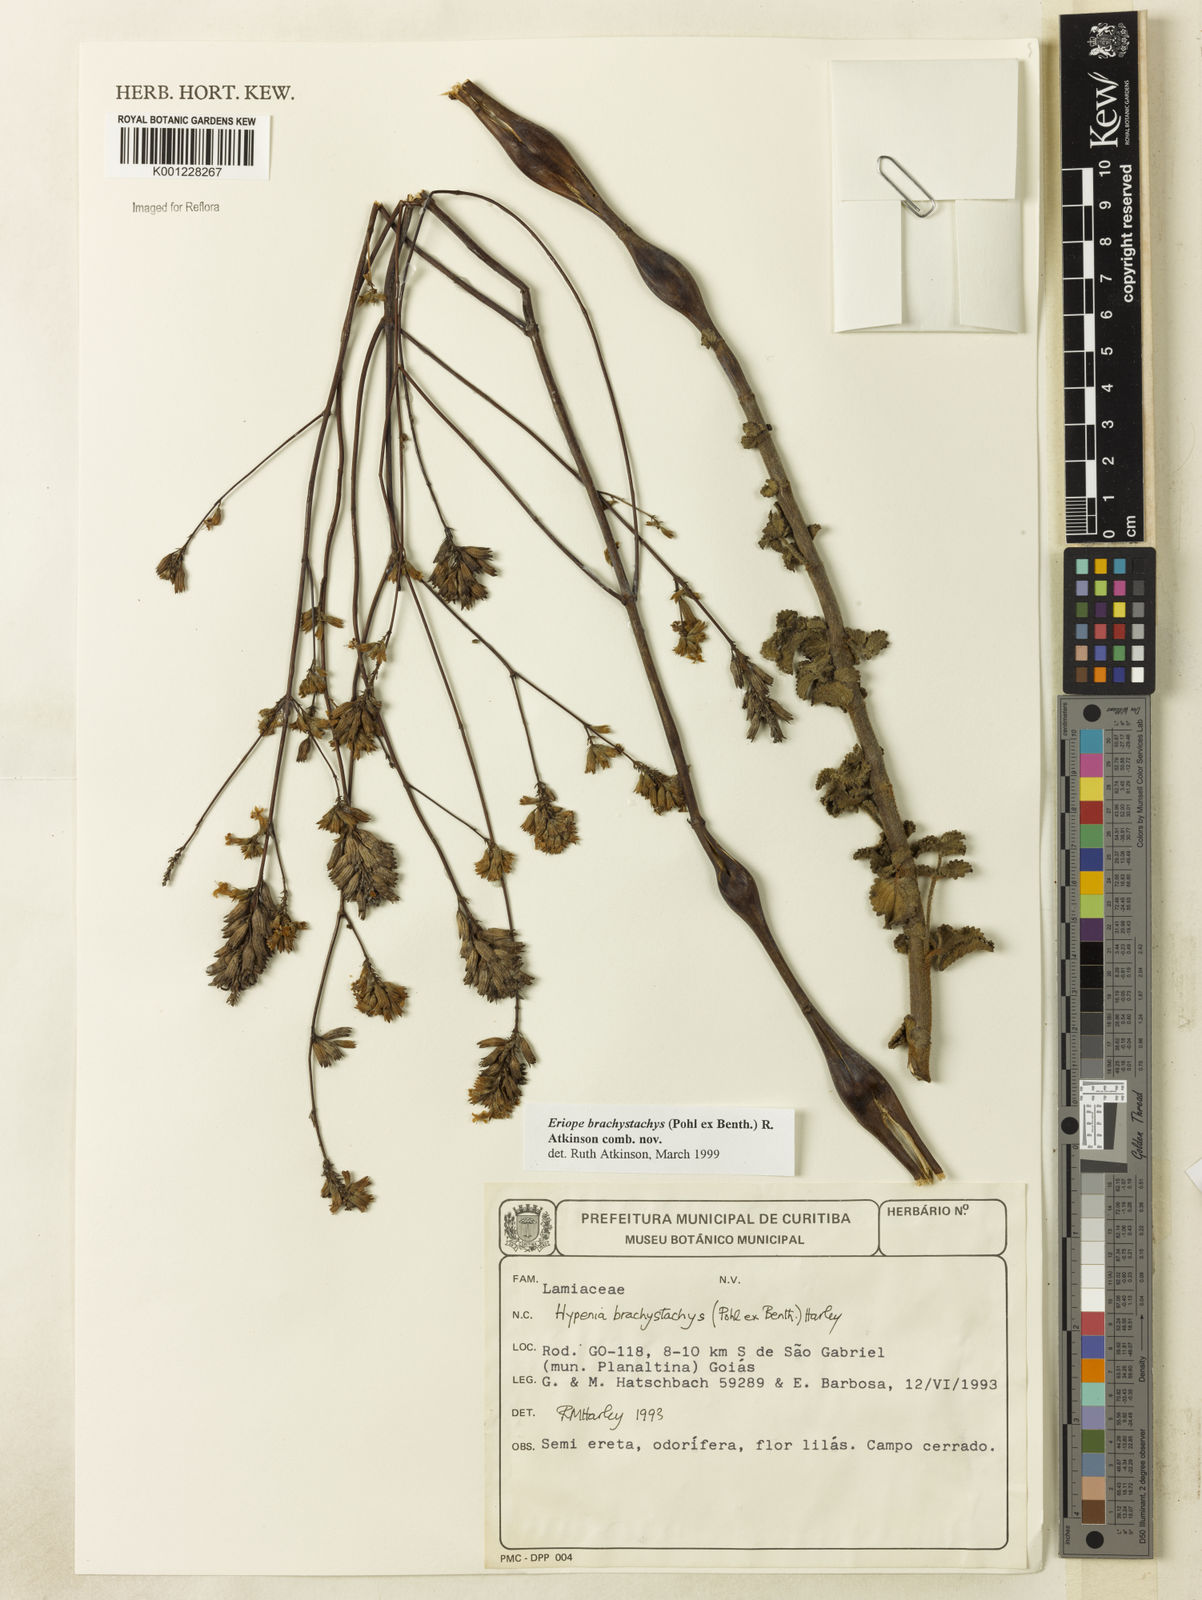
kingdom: Plantae
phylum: Tracheophyta
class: Magnoliopsida
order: Lamiales
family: Lamiaceae
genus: Hypenia
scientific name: Hypenia brachystachys
